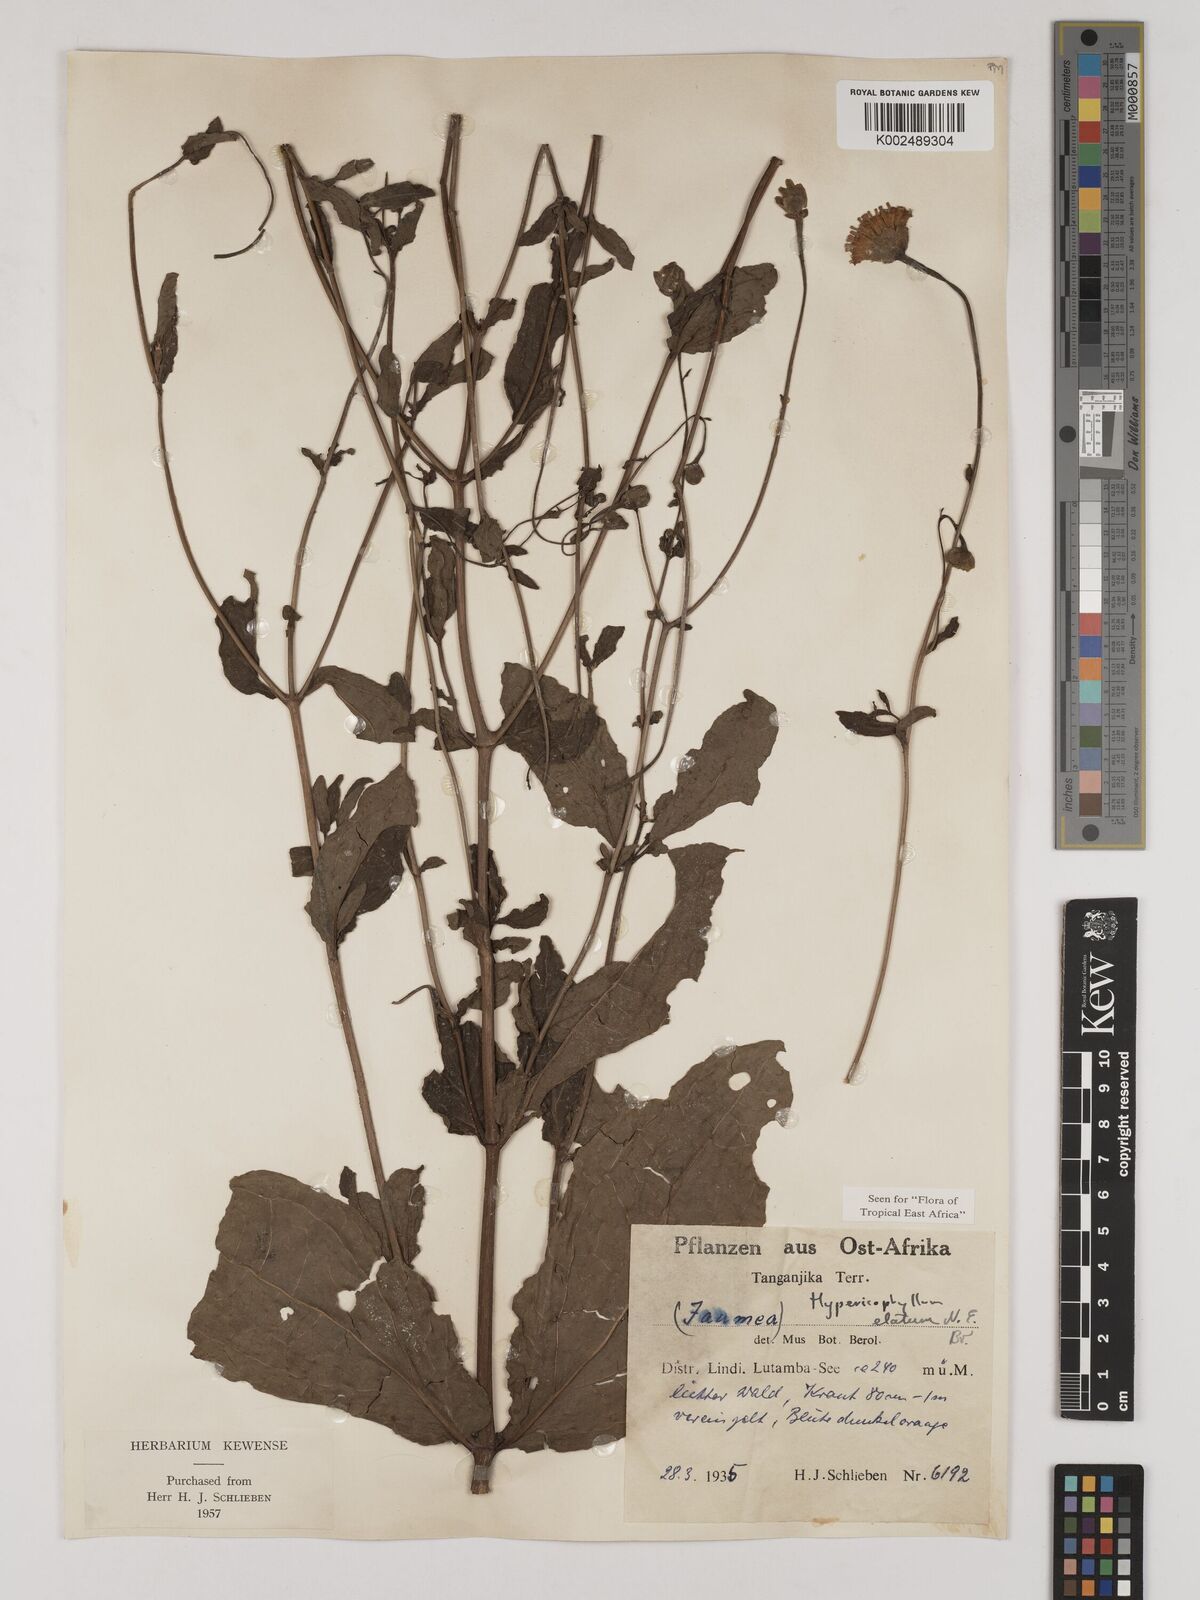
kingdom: Plantae
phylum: Tracheophyta
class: Magnoliopsida
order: Asterales
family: Asteraceae
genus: Hypericophyllum
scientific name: Hypericophyllum elatum
